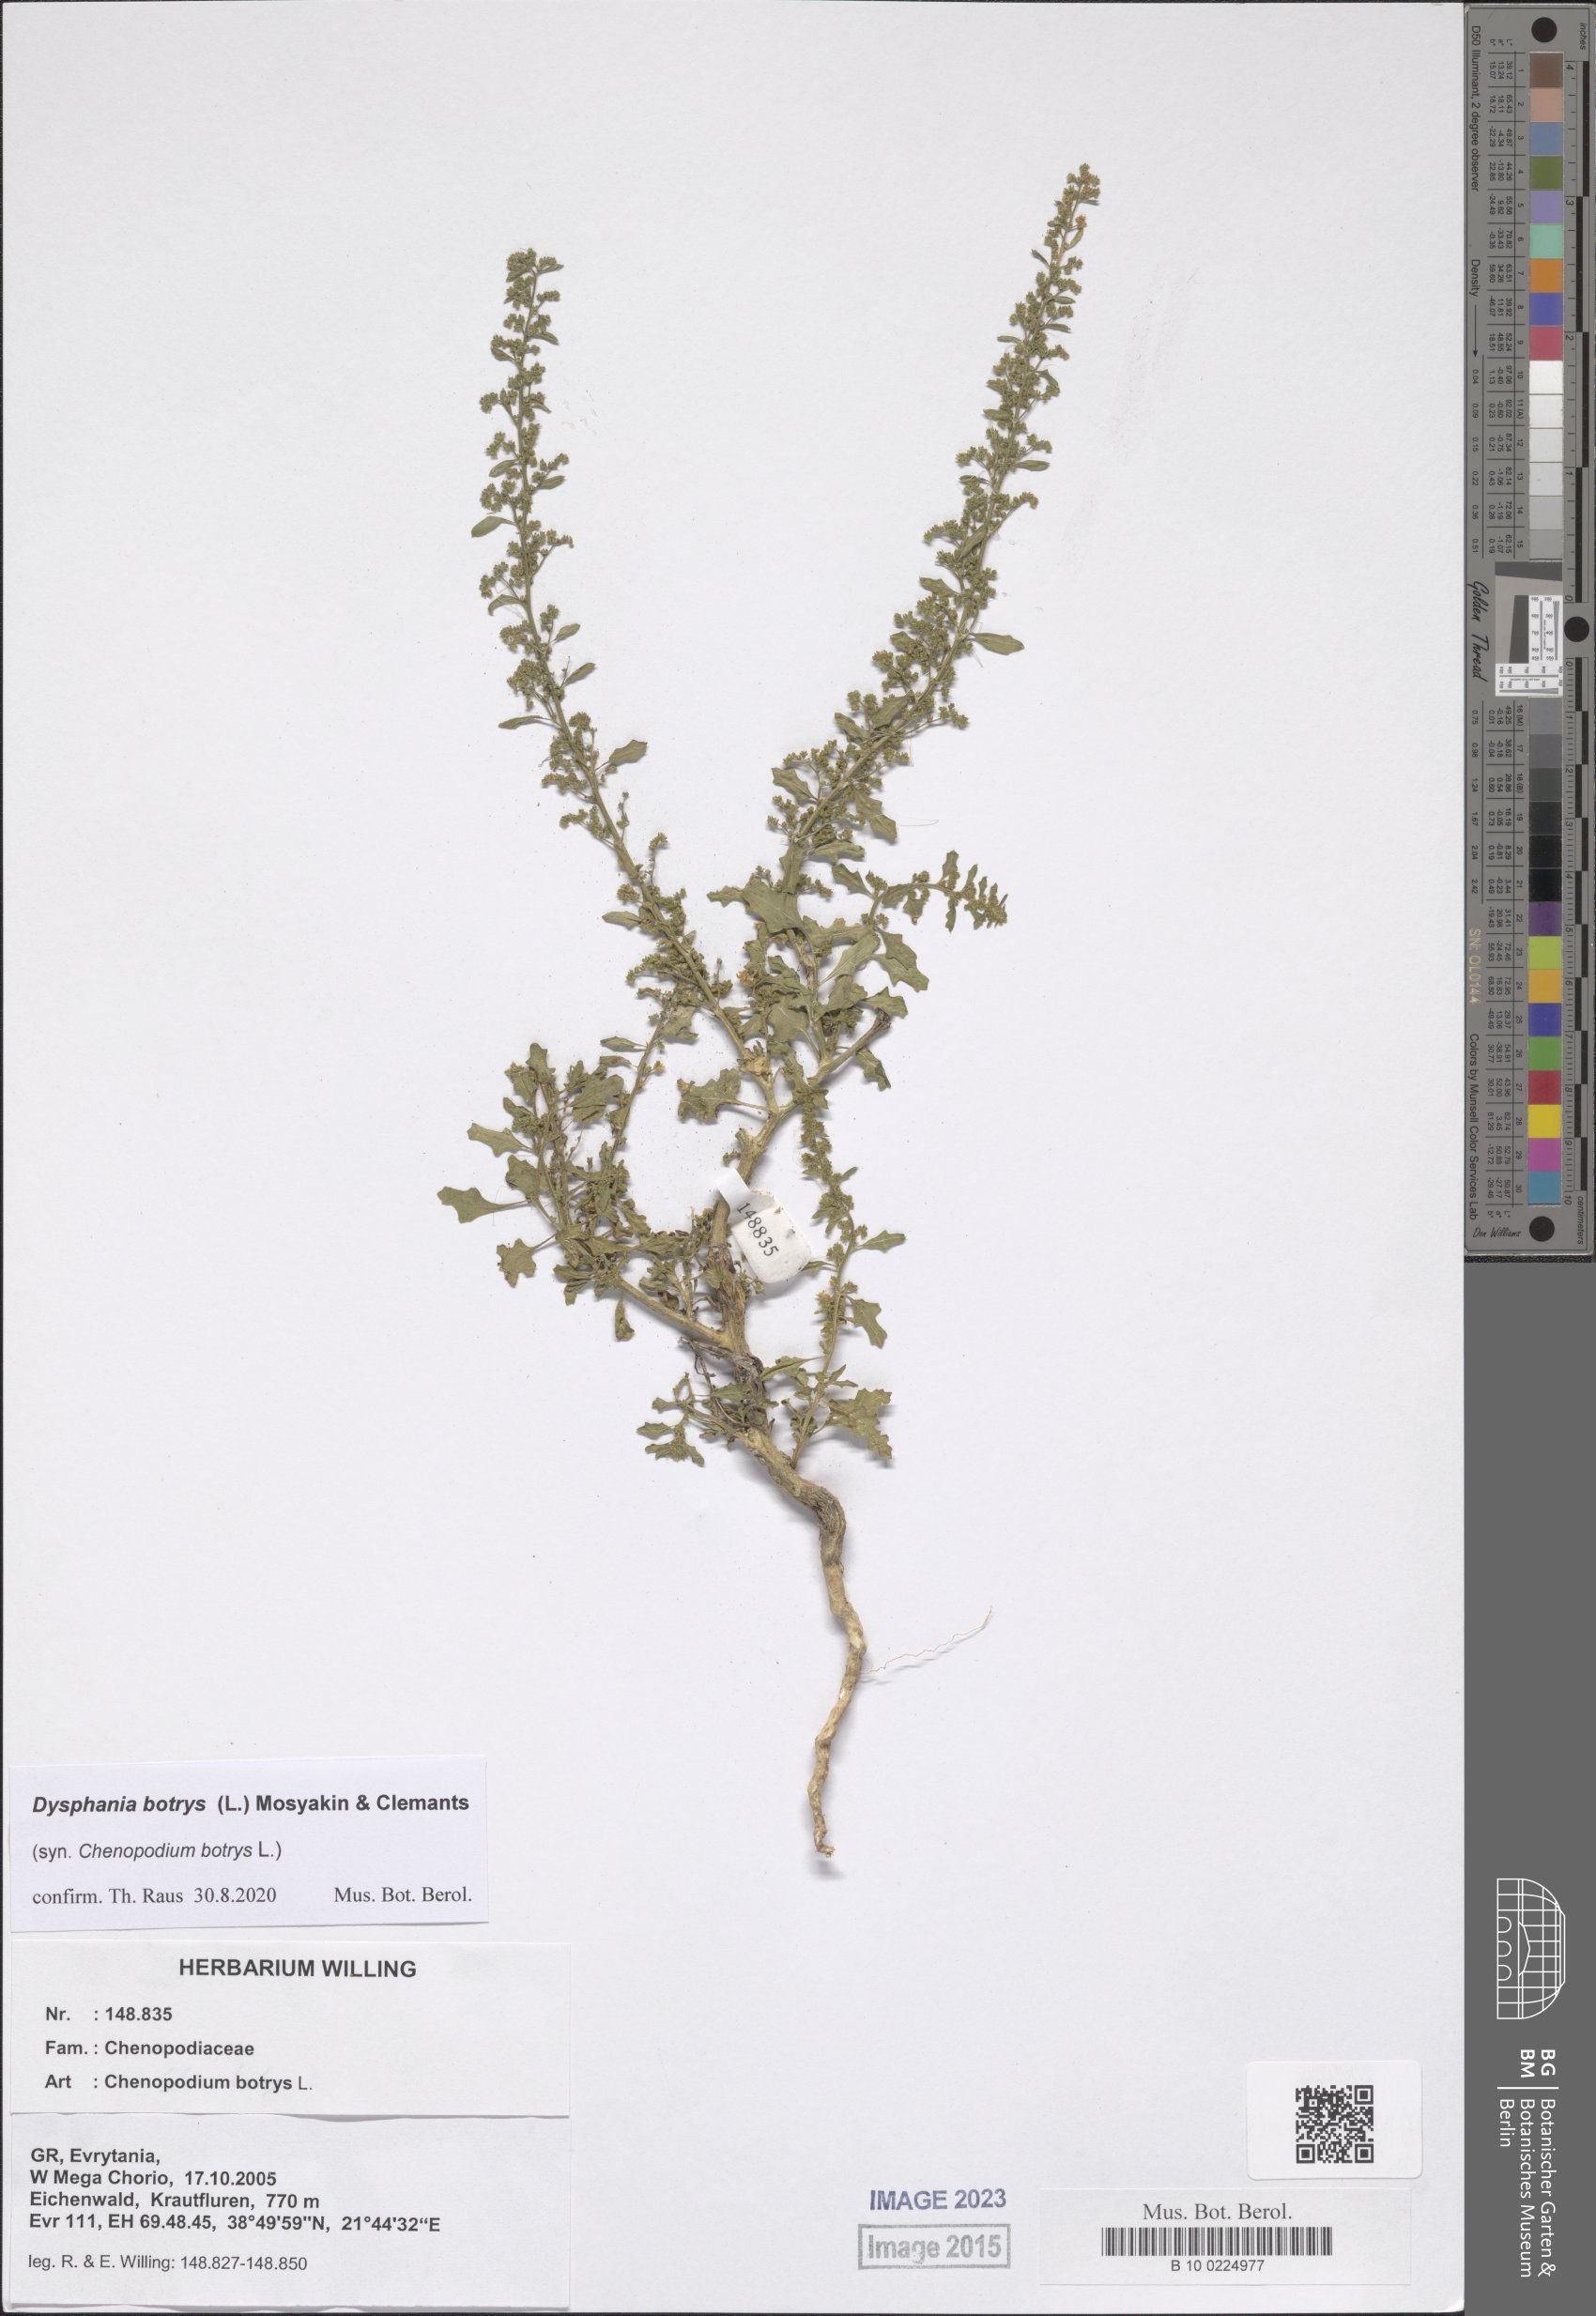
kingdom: Plantae
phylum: Tracheophyta
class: Magnoliopsida
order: Caryophyllales
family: Amaranthaceae
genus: Dysphania
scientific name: Dysphania botrys
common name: Feather-geranium
